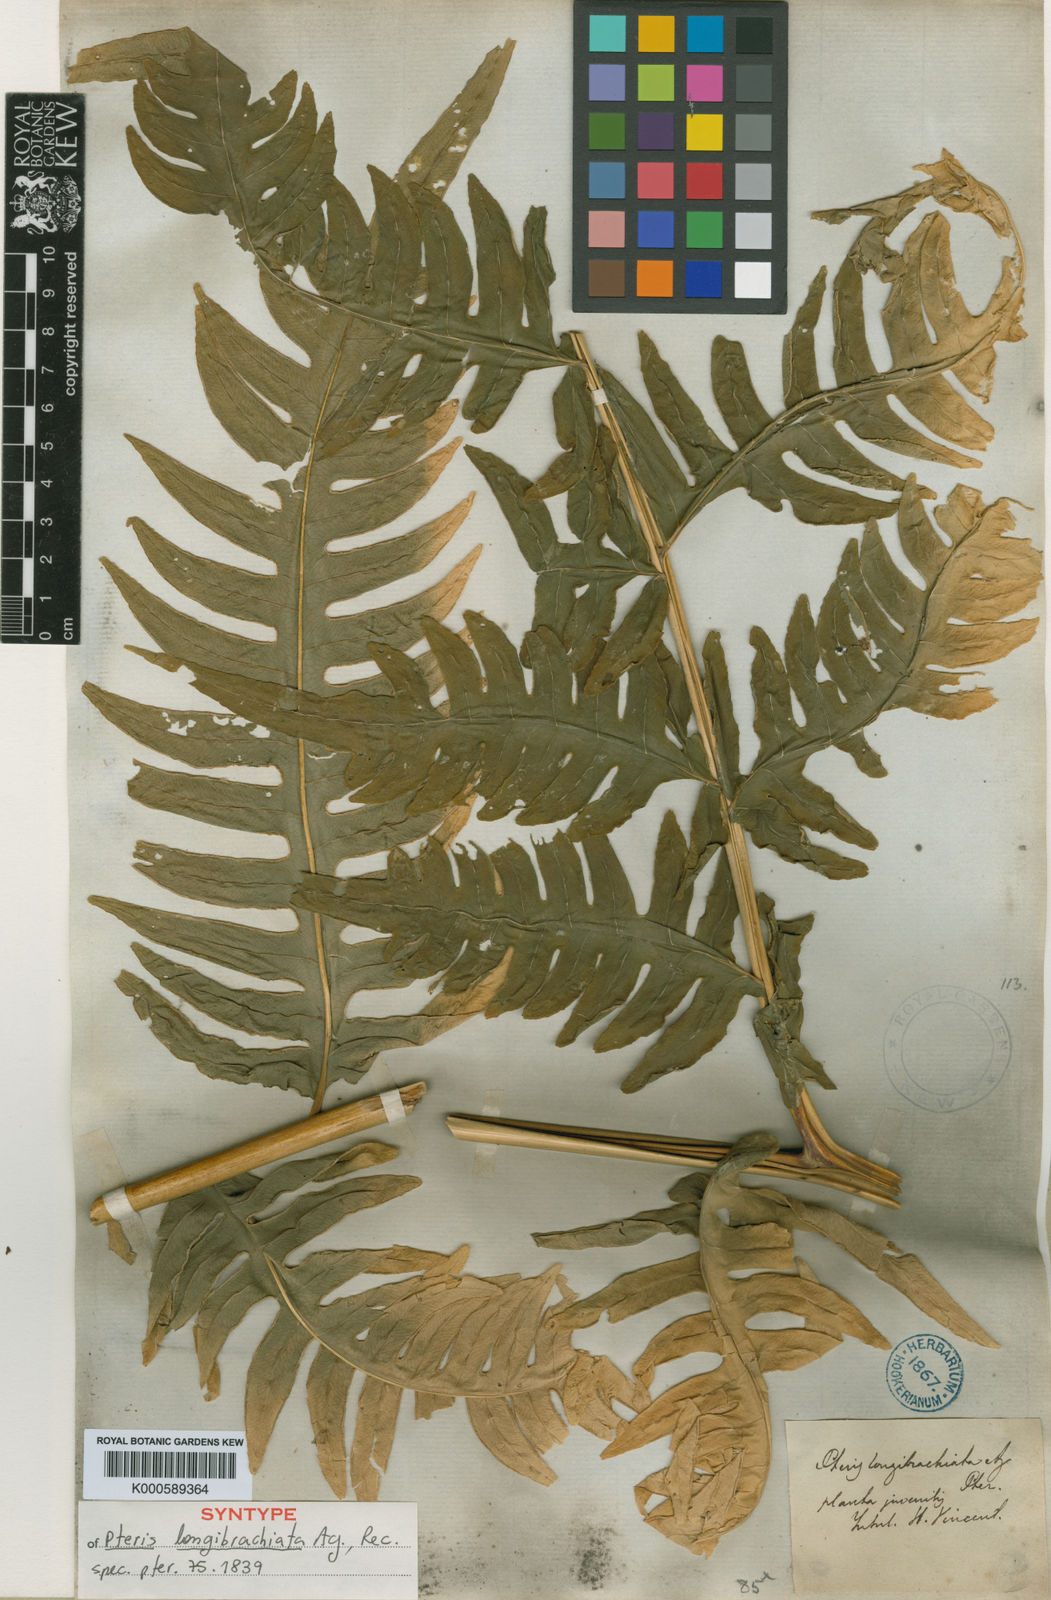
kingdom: Plantae
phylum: Tracheophyta
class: Polypodiopsida
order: Polypodiales
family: Pteridaceae
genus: Pteris
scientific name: Pteris arborea
